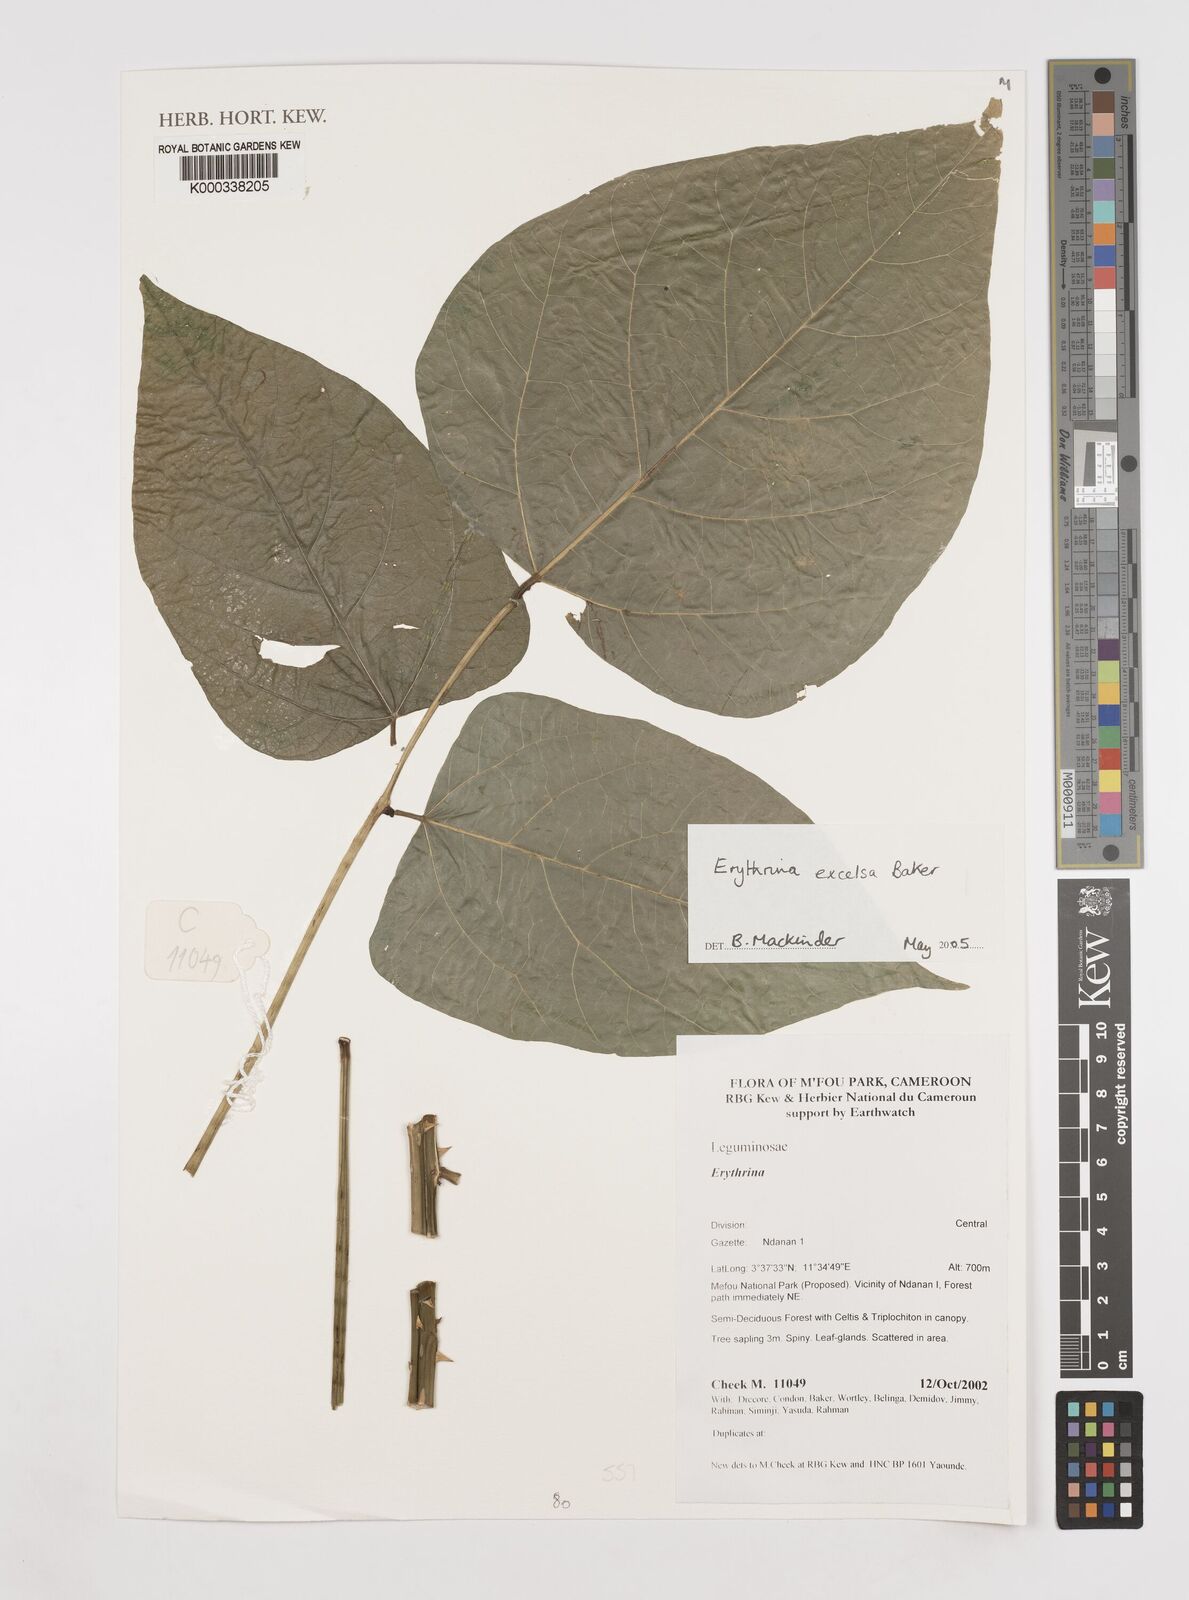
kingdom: Plantae
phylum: Tracheophyta
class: Magnoliopsida
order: Fabales
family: Fabaceae
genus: Erythrina
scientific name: Erythrina excelsa
